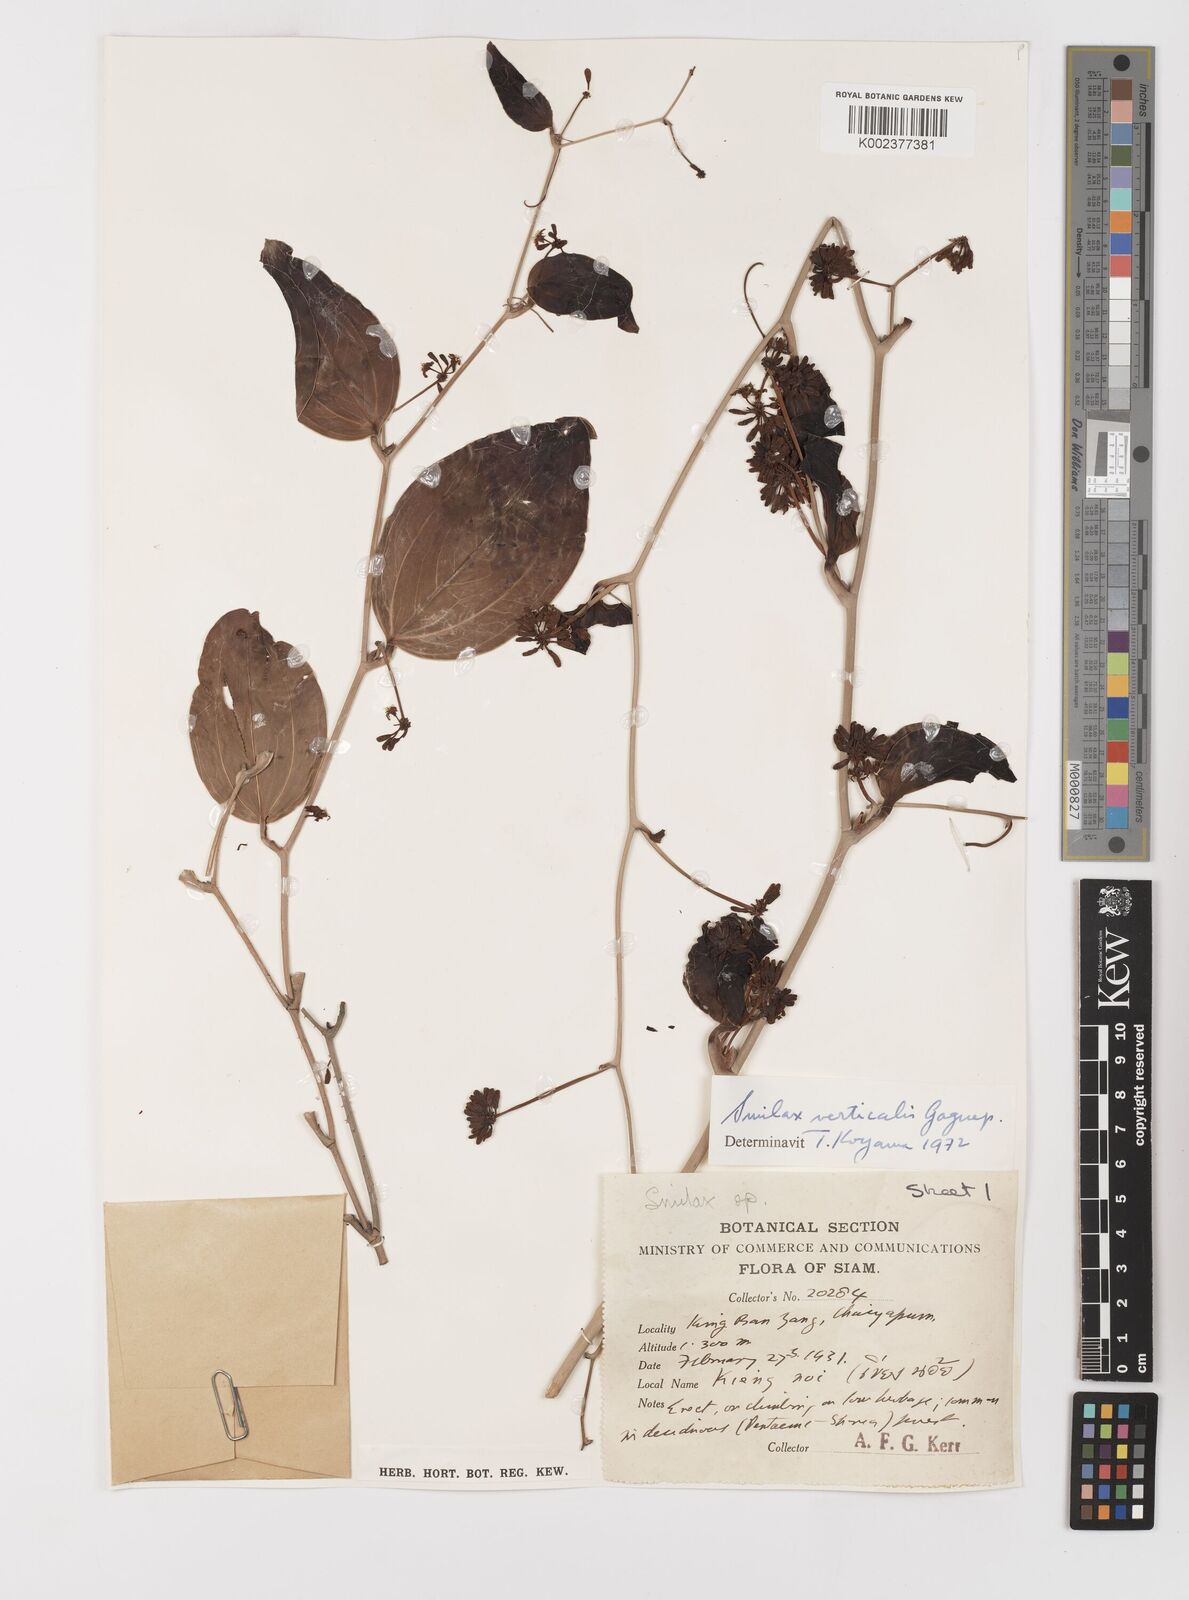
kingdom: Plantae
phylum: Tracheophyta
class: Liliopsida
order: Liliales
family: Smilacaceae
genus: Smilax
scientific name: Smilax verticalis
